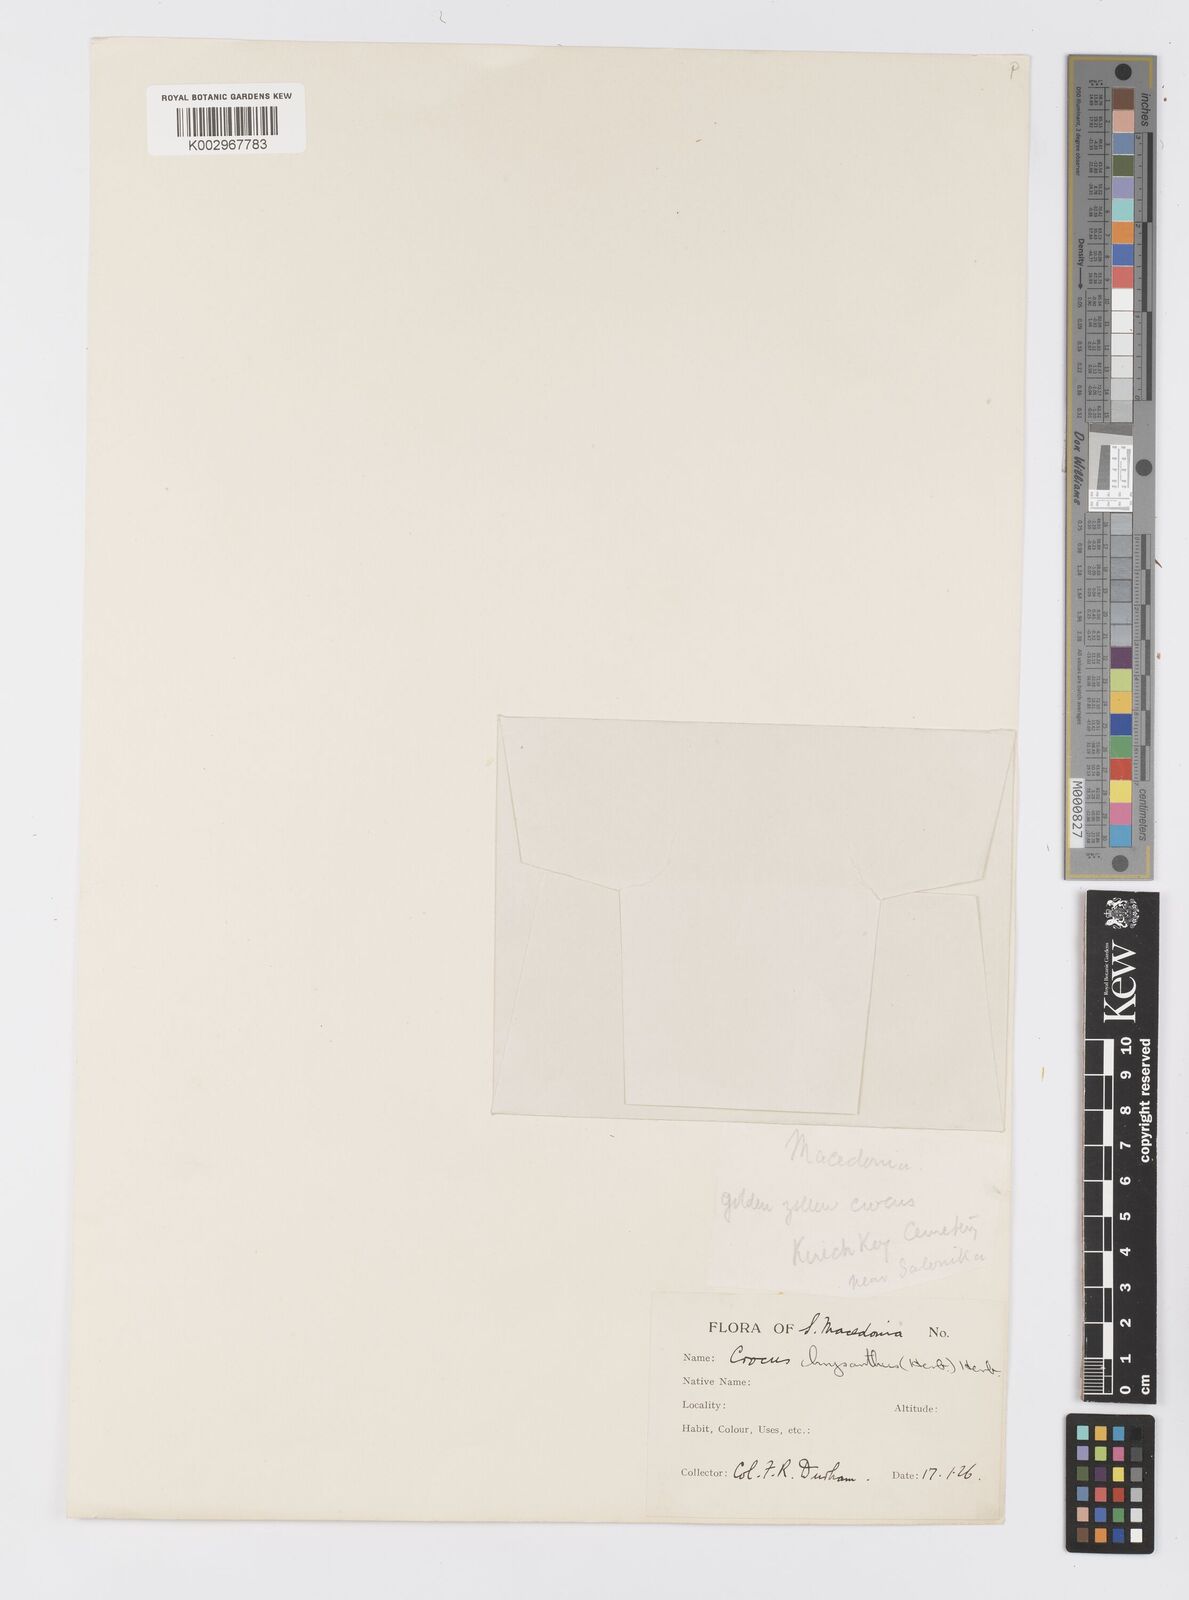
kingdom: Plantae
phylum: Tracheophyta
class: Liliopsida
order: Asparagales
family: Iridaceae
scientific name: Iridaceae
